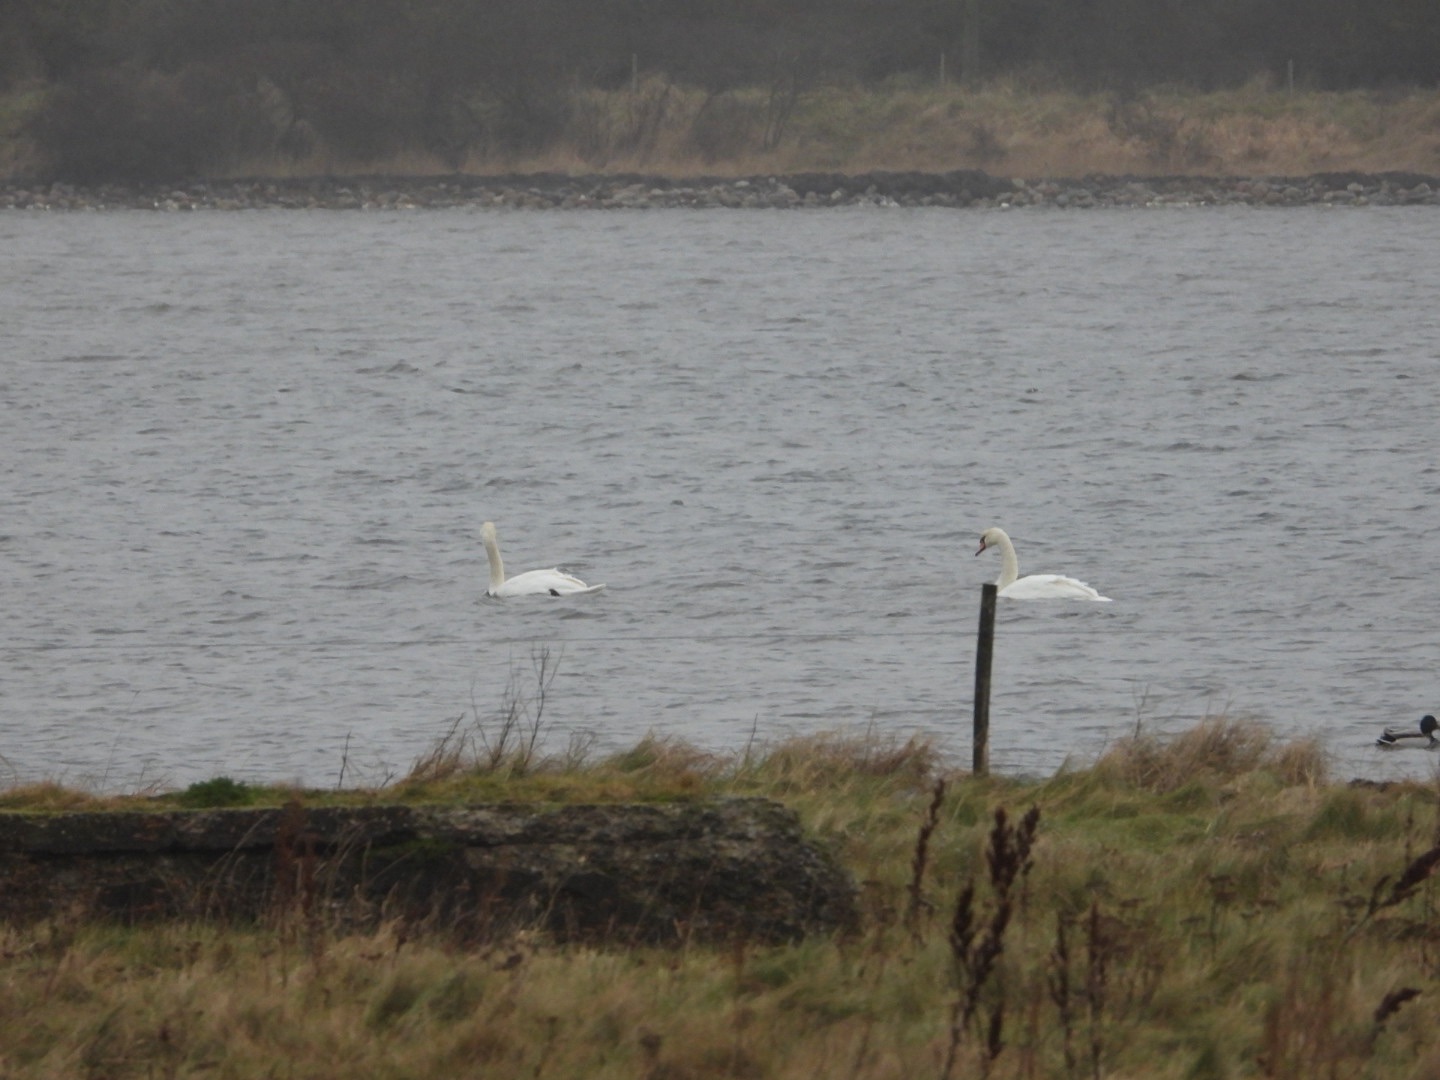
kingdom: Animalia
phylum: Chordata
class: Aves
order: Anseriformes
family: Anatidae
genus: Cygnus
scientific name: Cygnus olor
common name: Knopsvane
